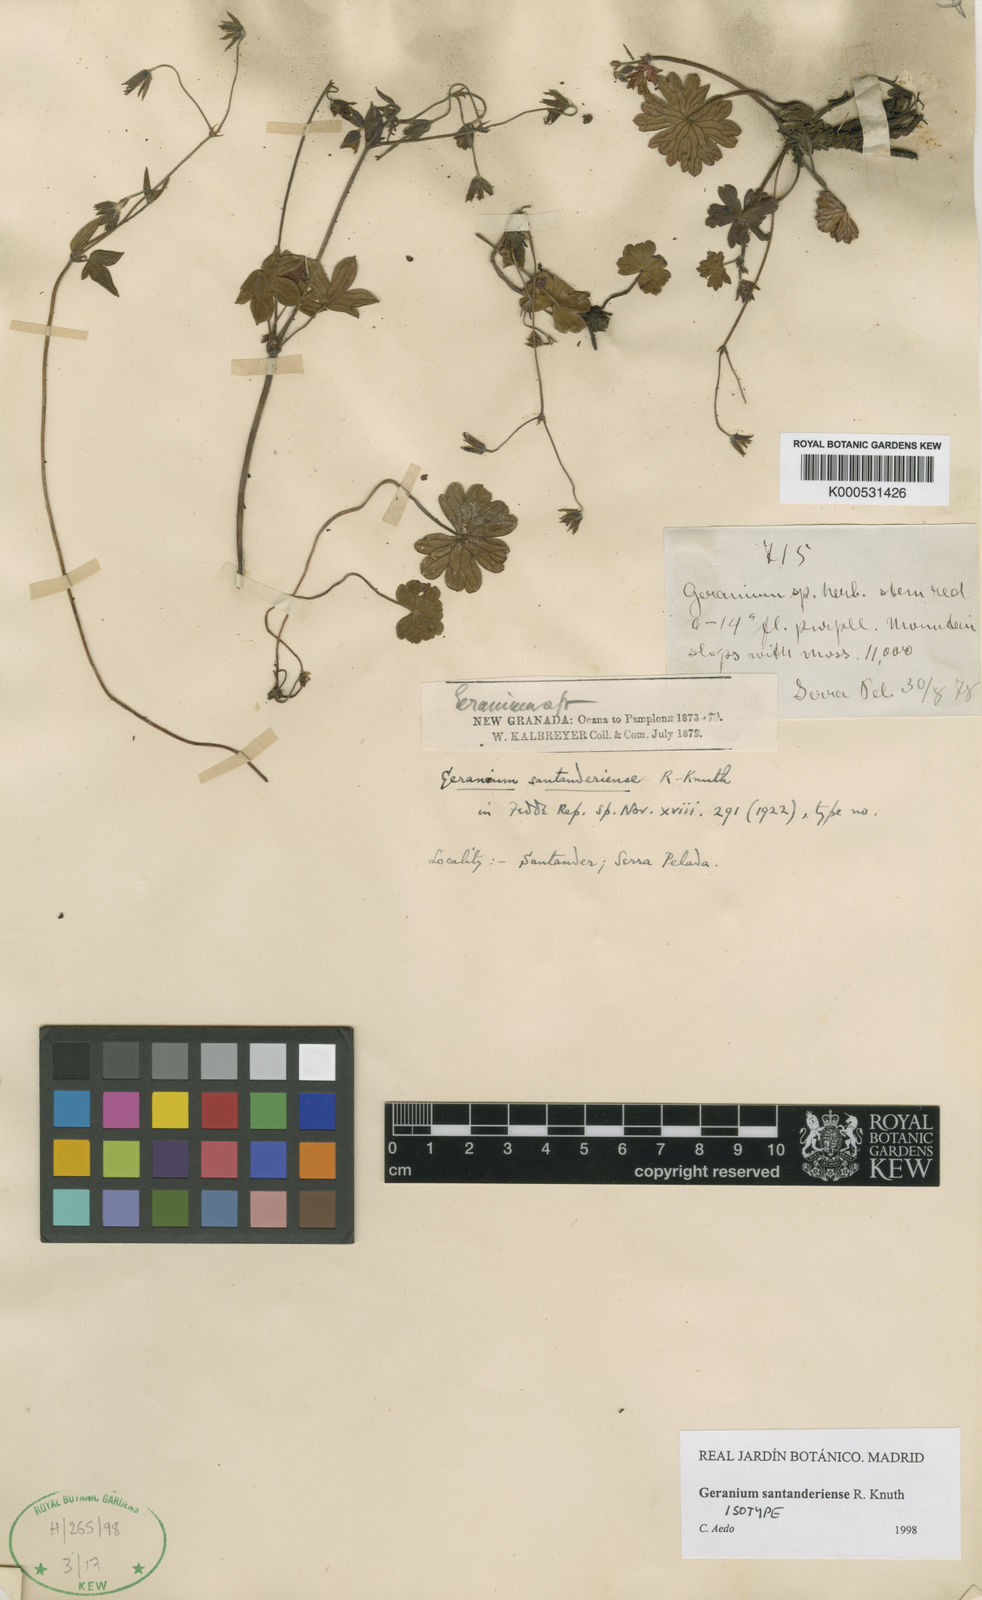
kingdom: Plantae
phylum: Tracheophyta
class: Magnoliopsida
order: Geraniales
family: Geraniaceae
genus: Geranium
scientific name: Geranium santanderiense
